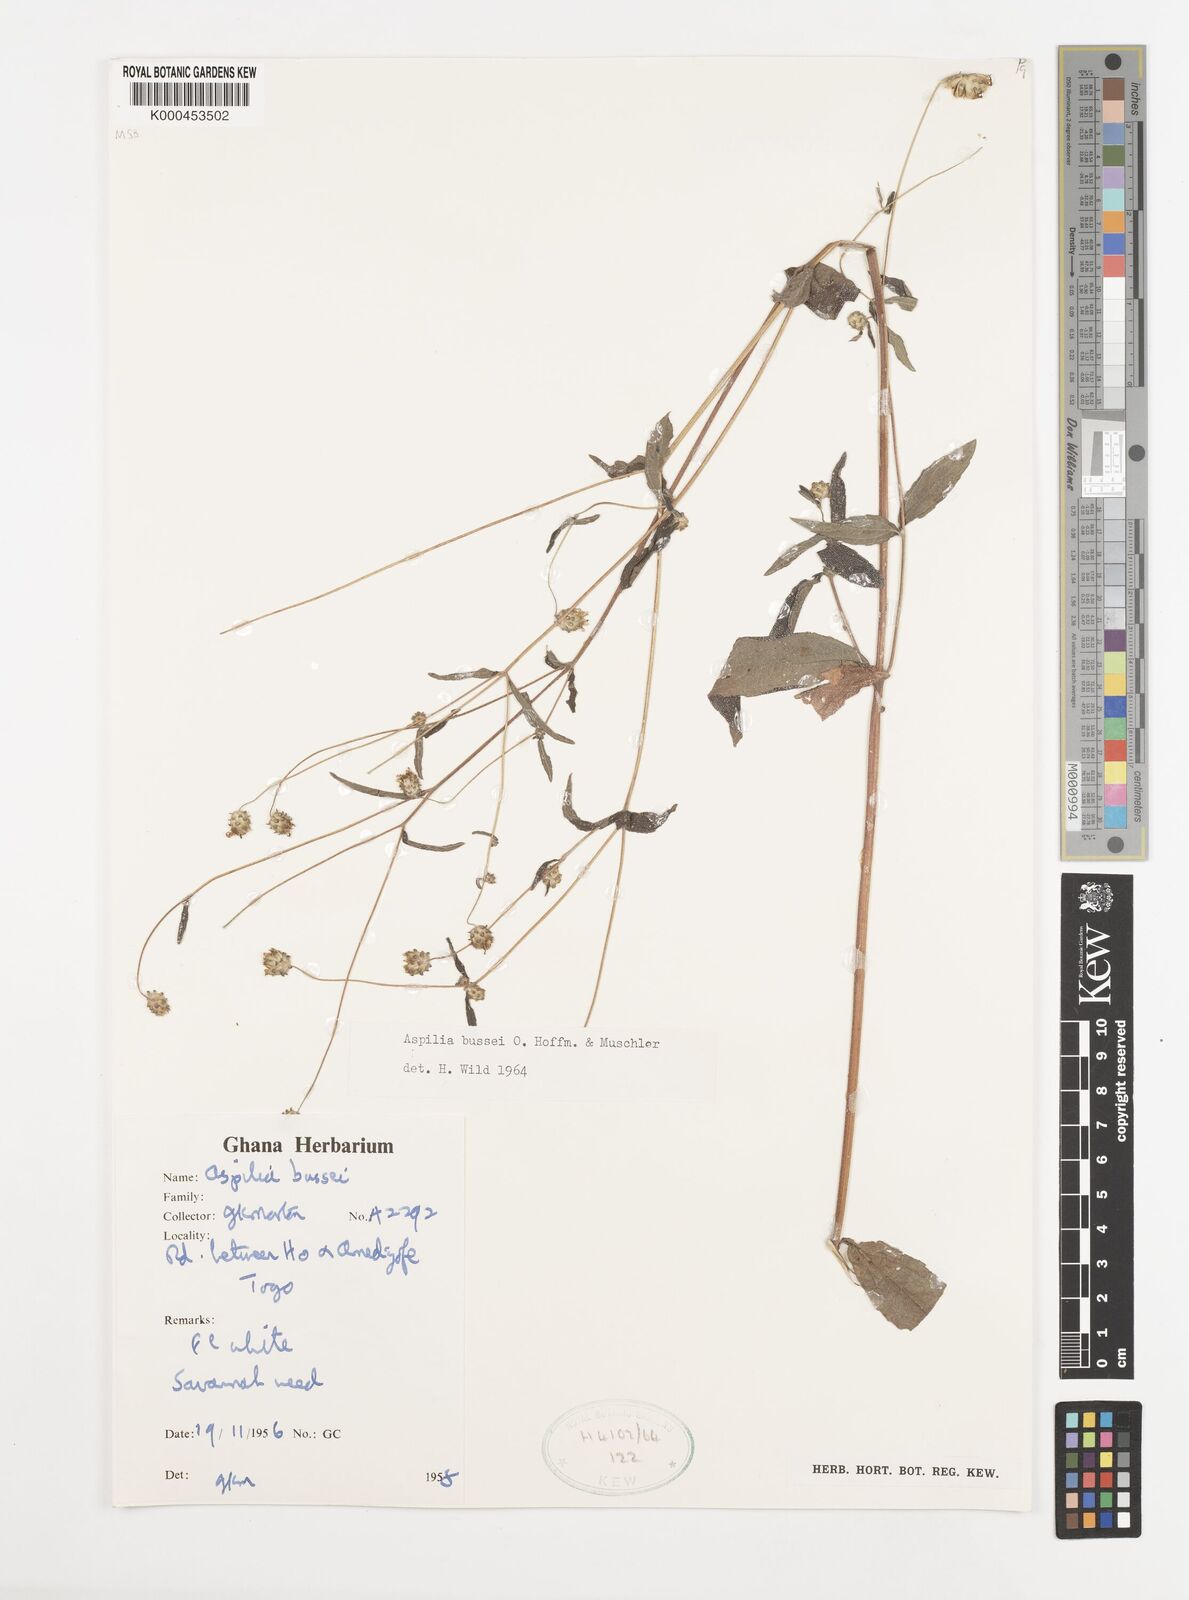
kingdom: Plantae
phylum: Tracheophyta
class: Magnoliopsida
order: Asterales
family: Asteraceae
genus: Aspilia
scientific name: Aspilia bussei
